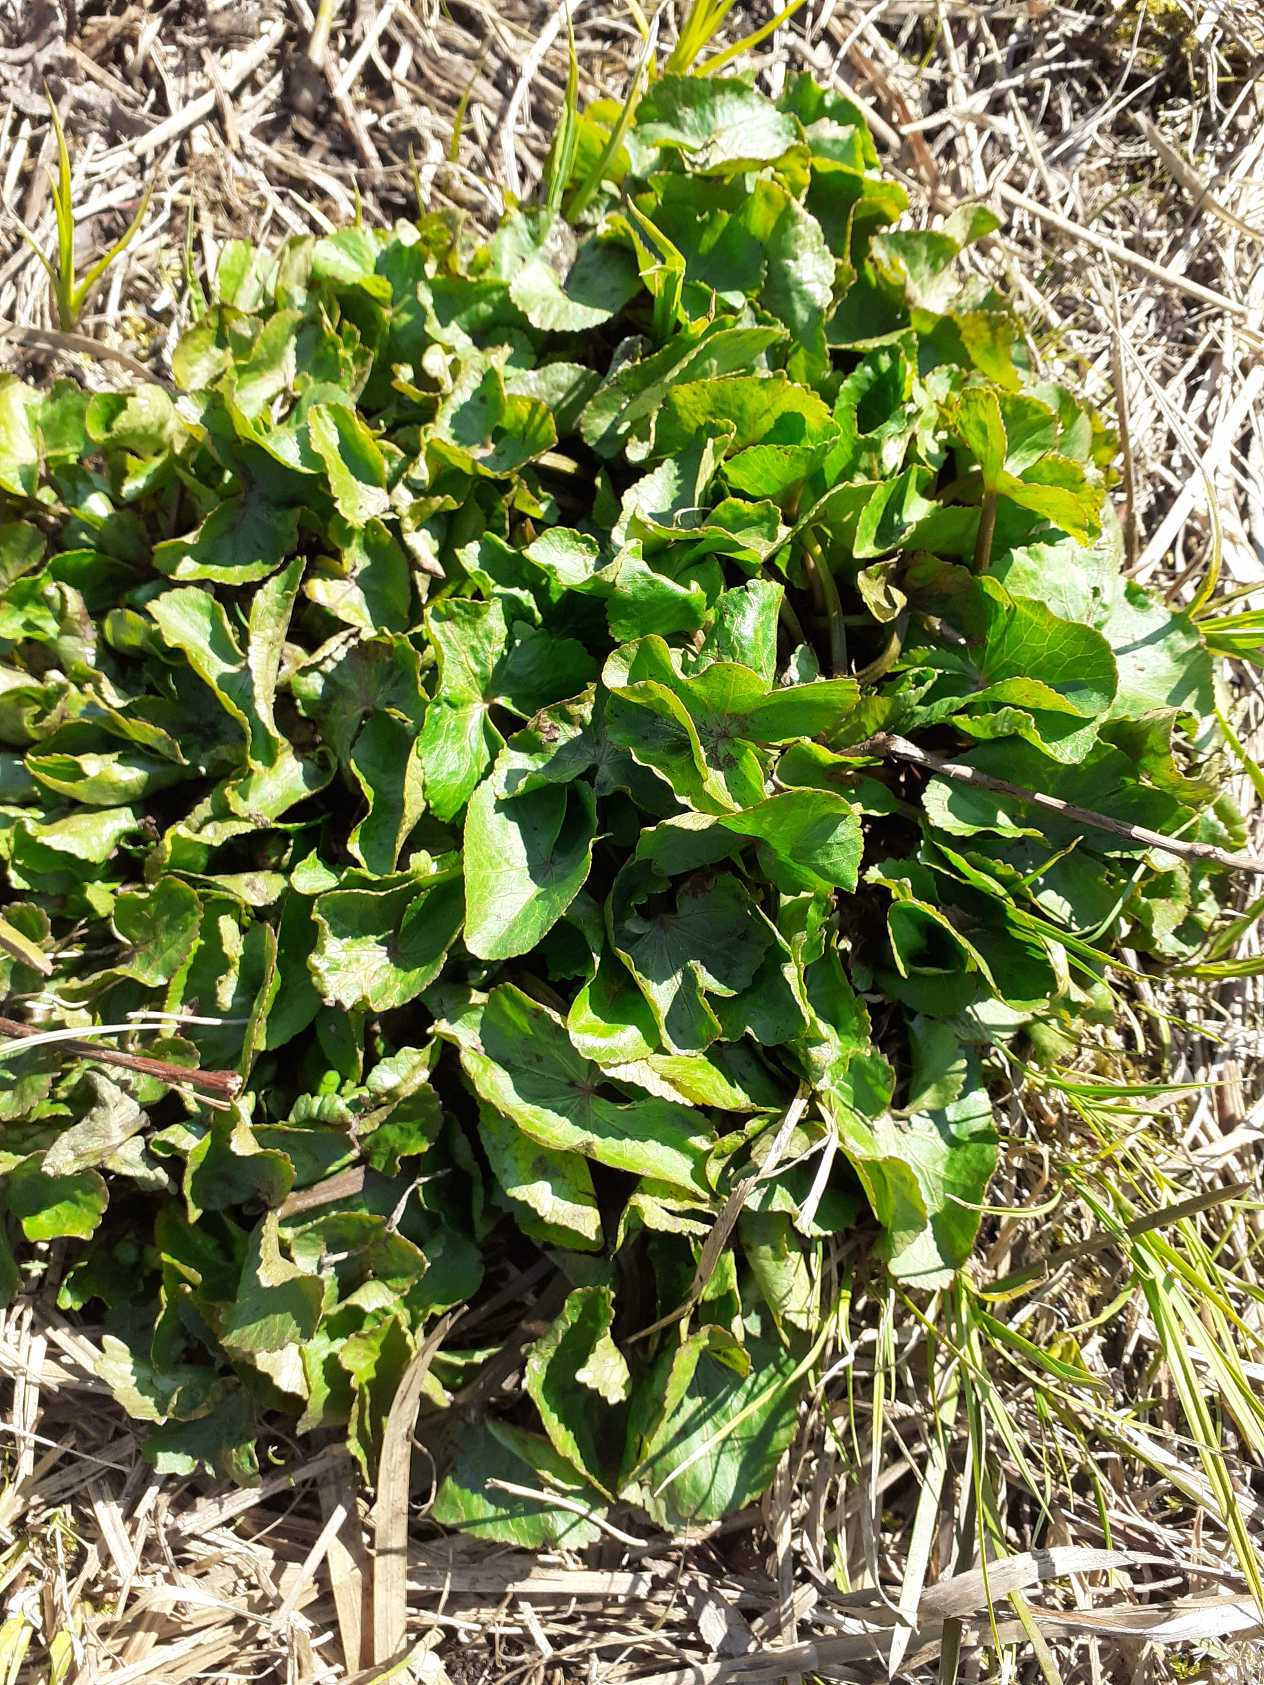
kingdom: Plantae
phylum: Tracheophyta
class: Magnoliopsida
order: Ranunculales
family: Ranunculaceae
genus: Caltha
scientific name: Caltha palustris
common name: Eng-kabbeleje
